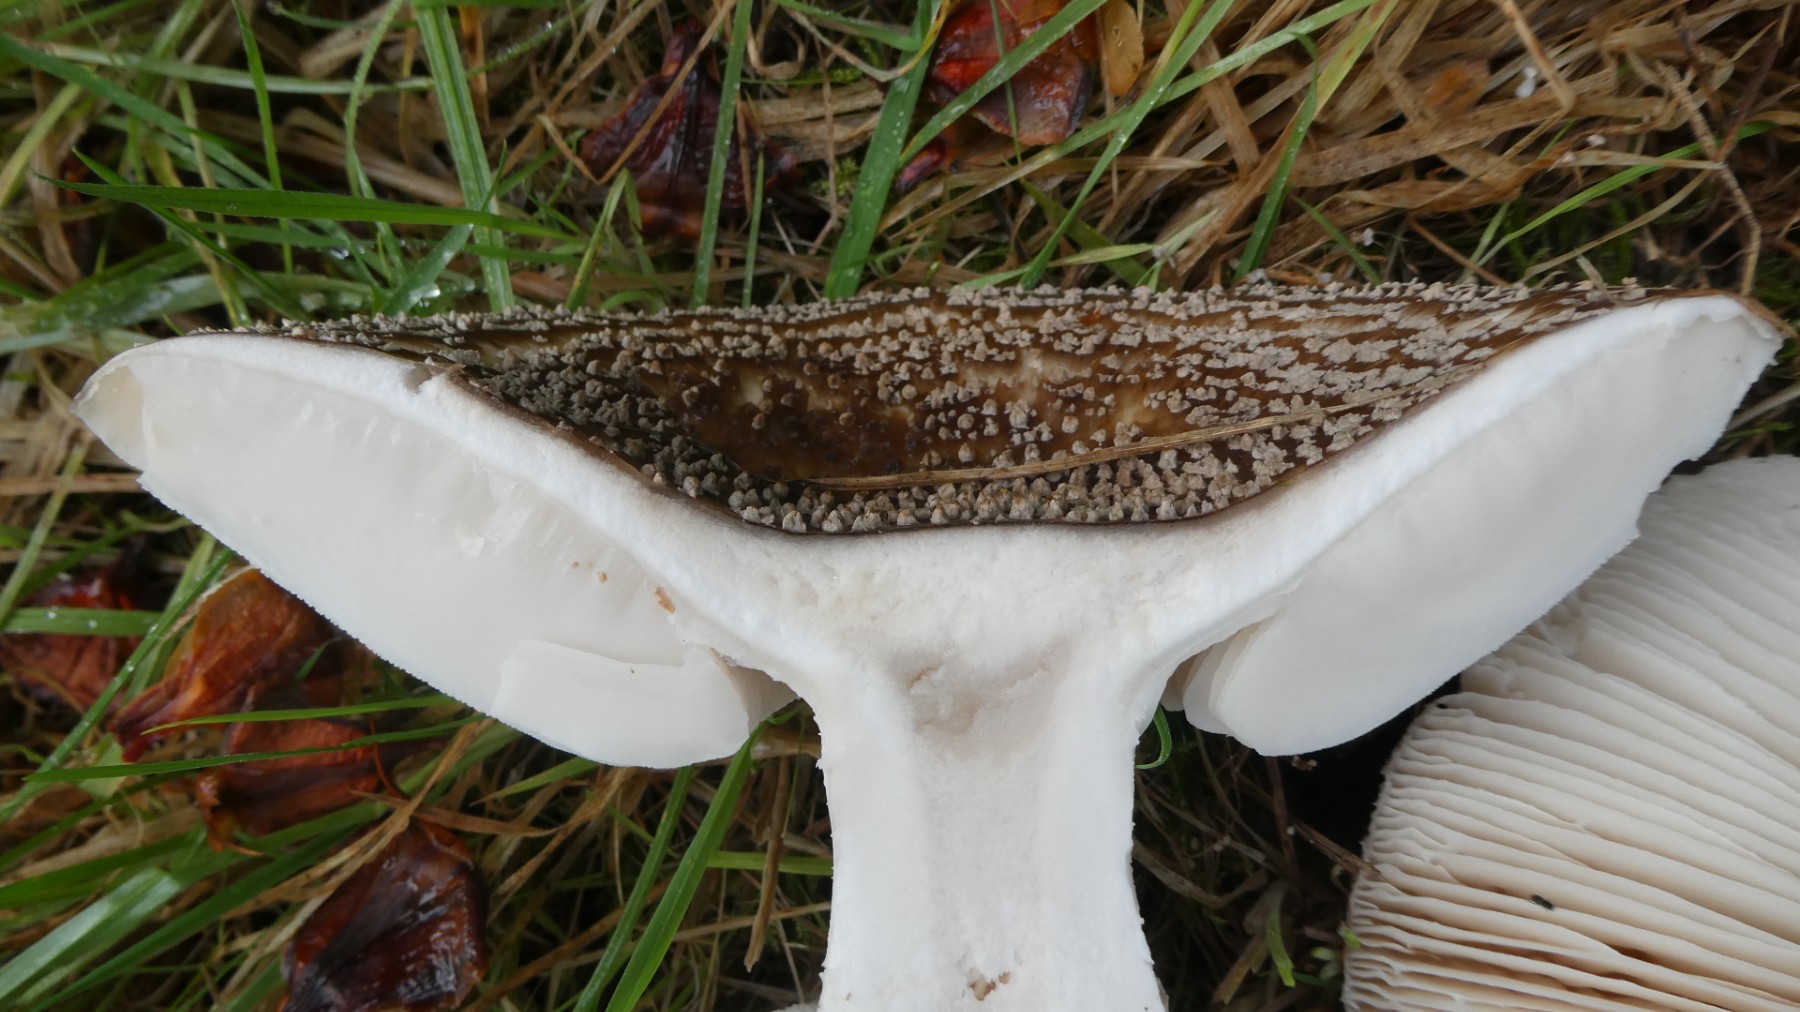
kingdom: Fungi
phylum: Basidiomycota
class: Agaricomycetes
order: Agaricales
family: Amanitaceae
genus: Amanita
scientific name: Amanita
